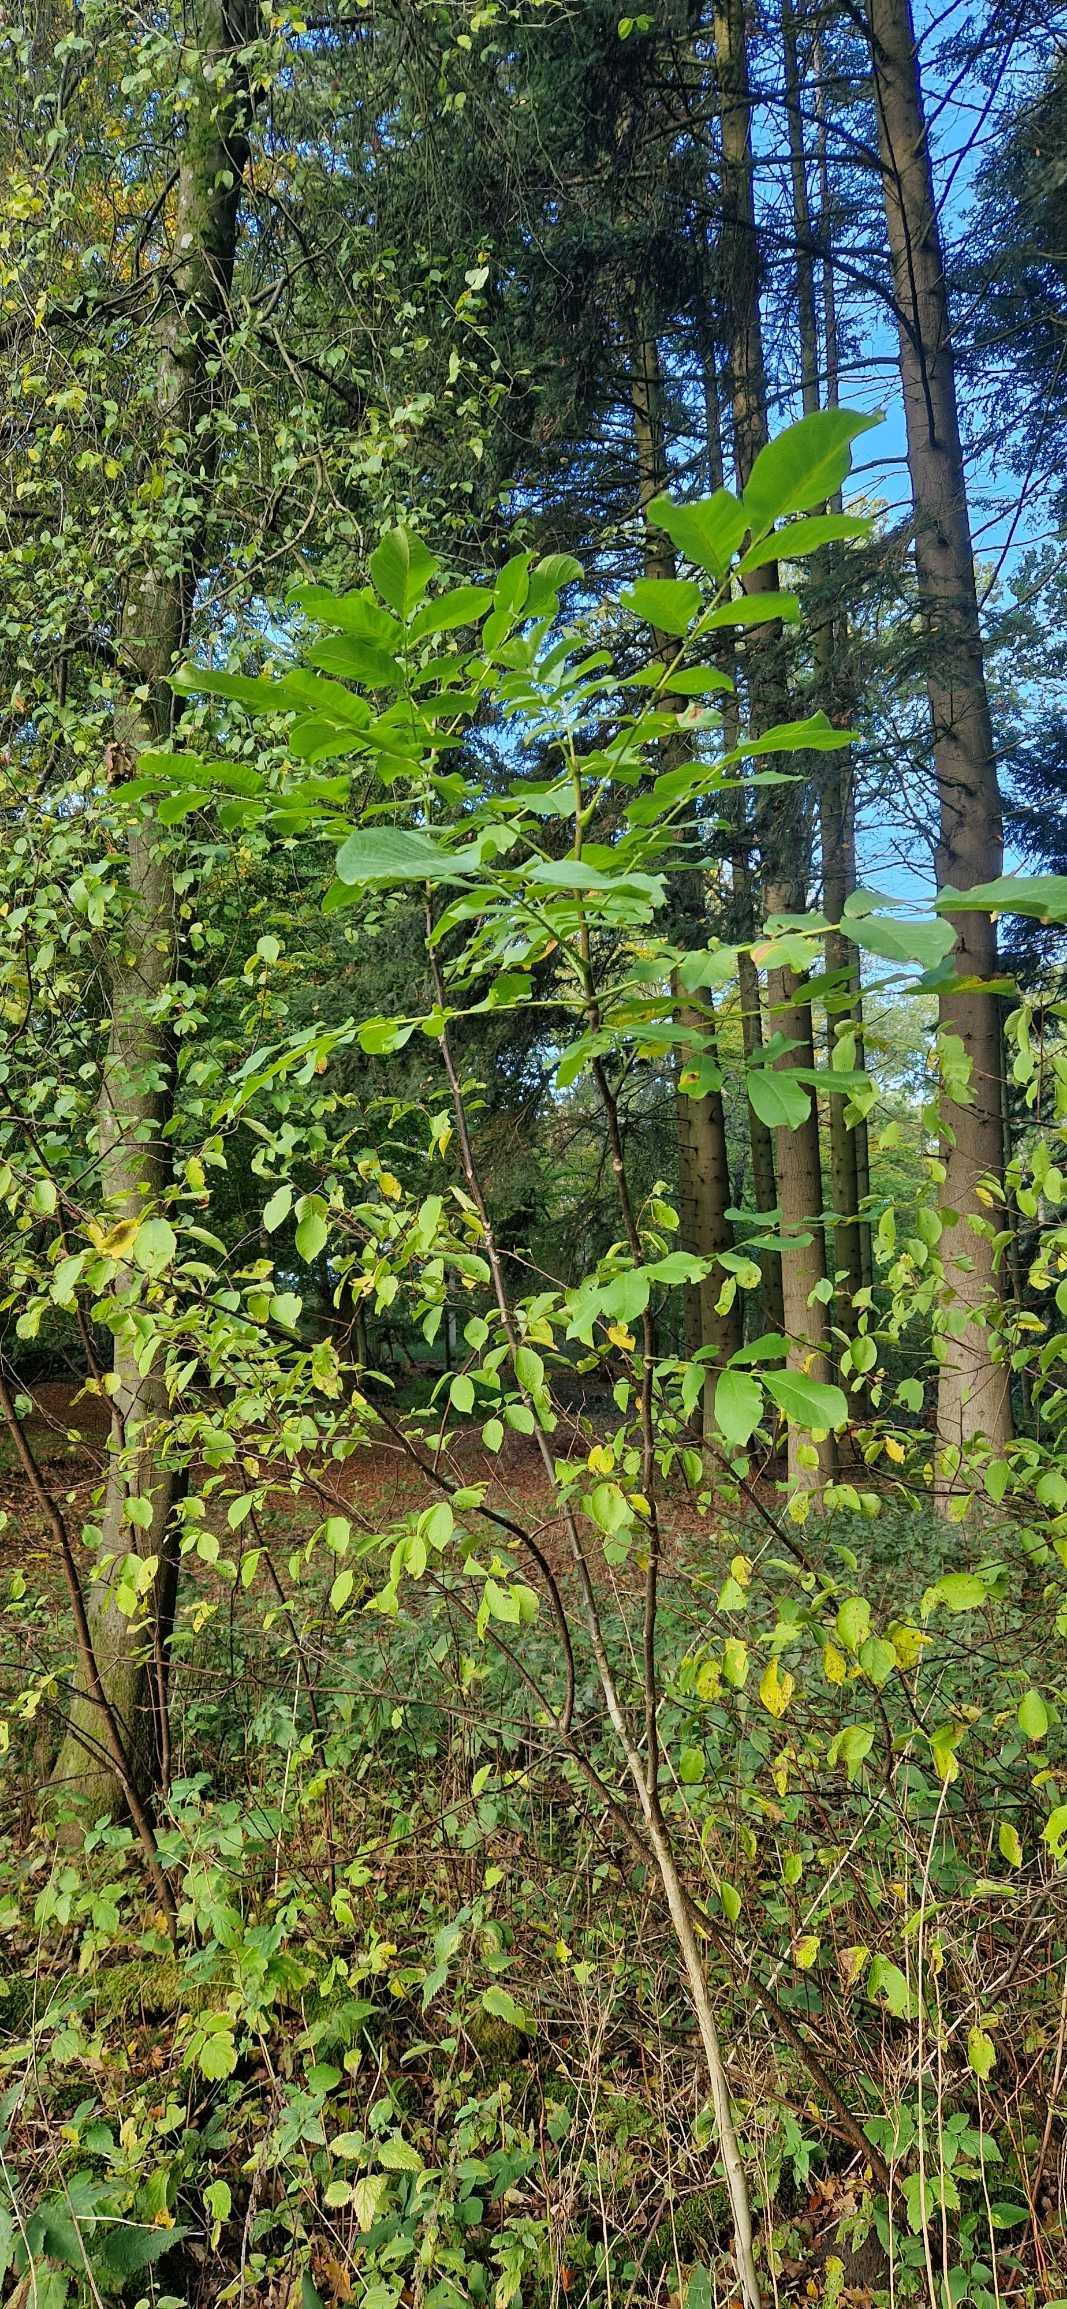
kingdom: Plantae
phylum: Tracheophyta
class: Magnoliopsida
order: Fagales
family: Juglandaceae
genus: Juglans
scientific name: Juglans regia
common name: Almindelig valnød
